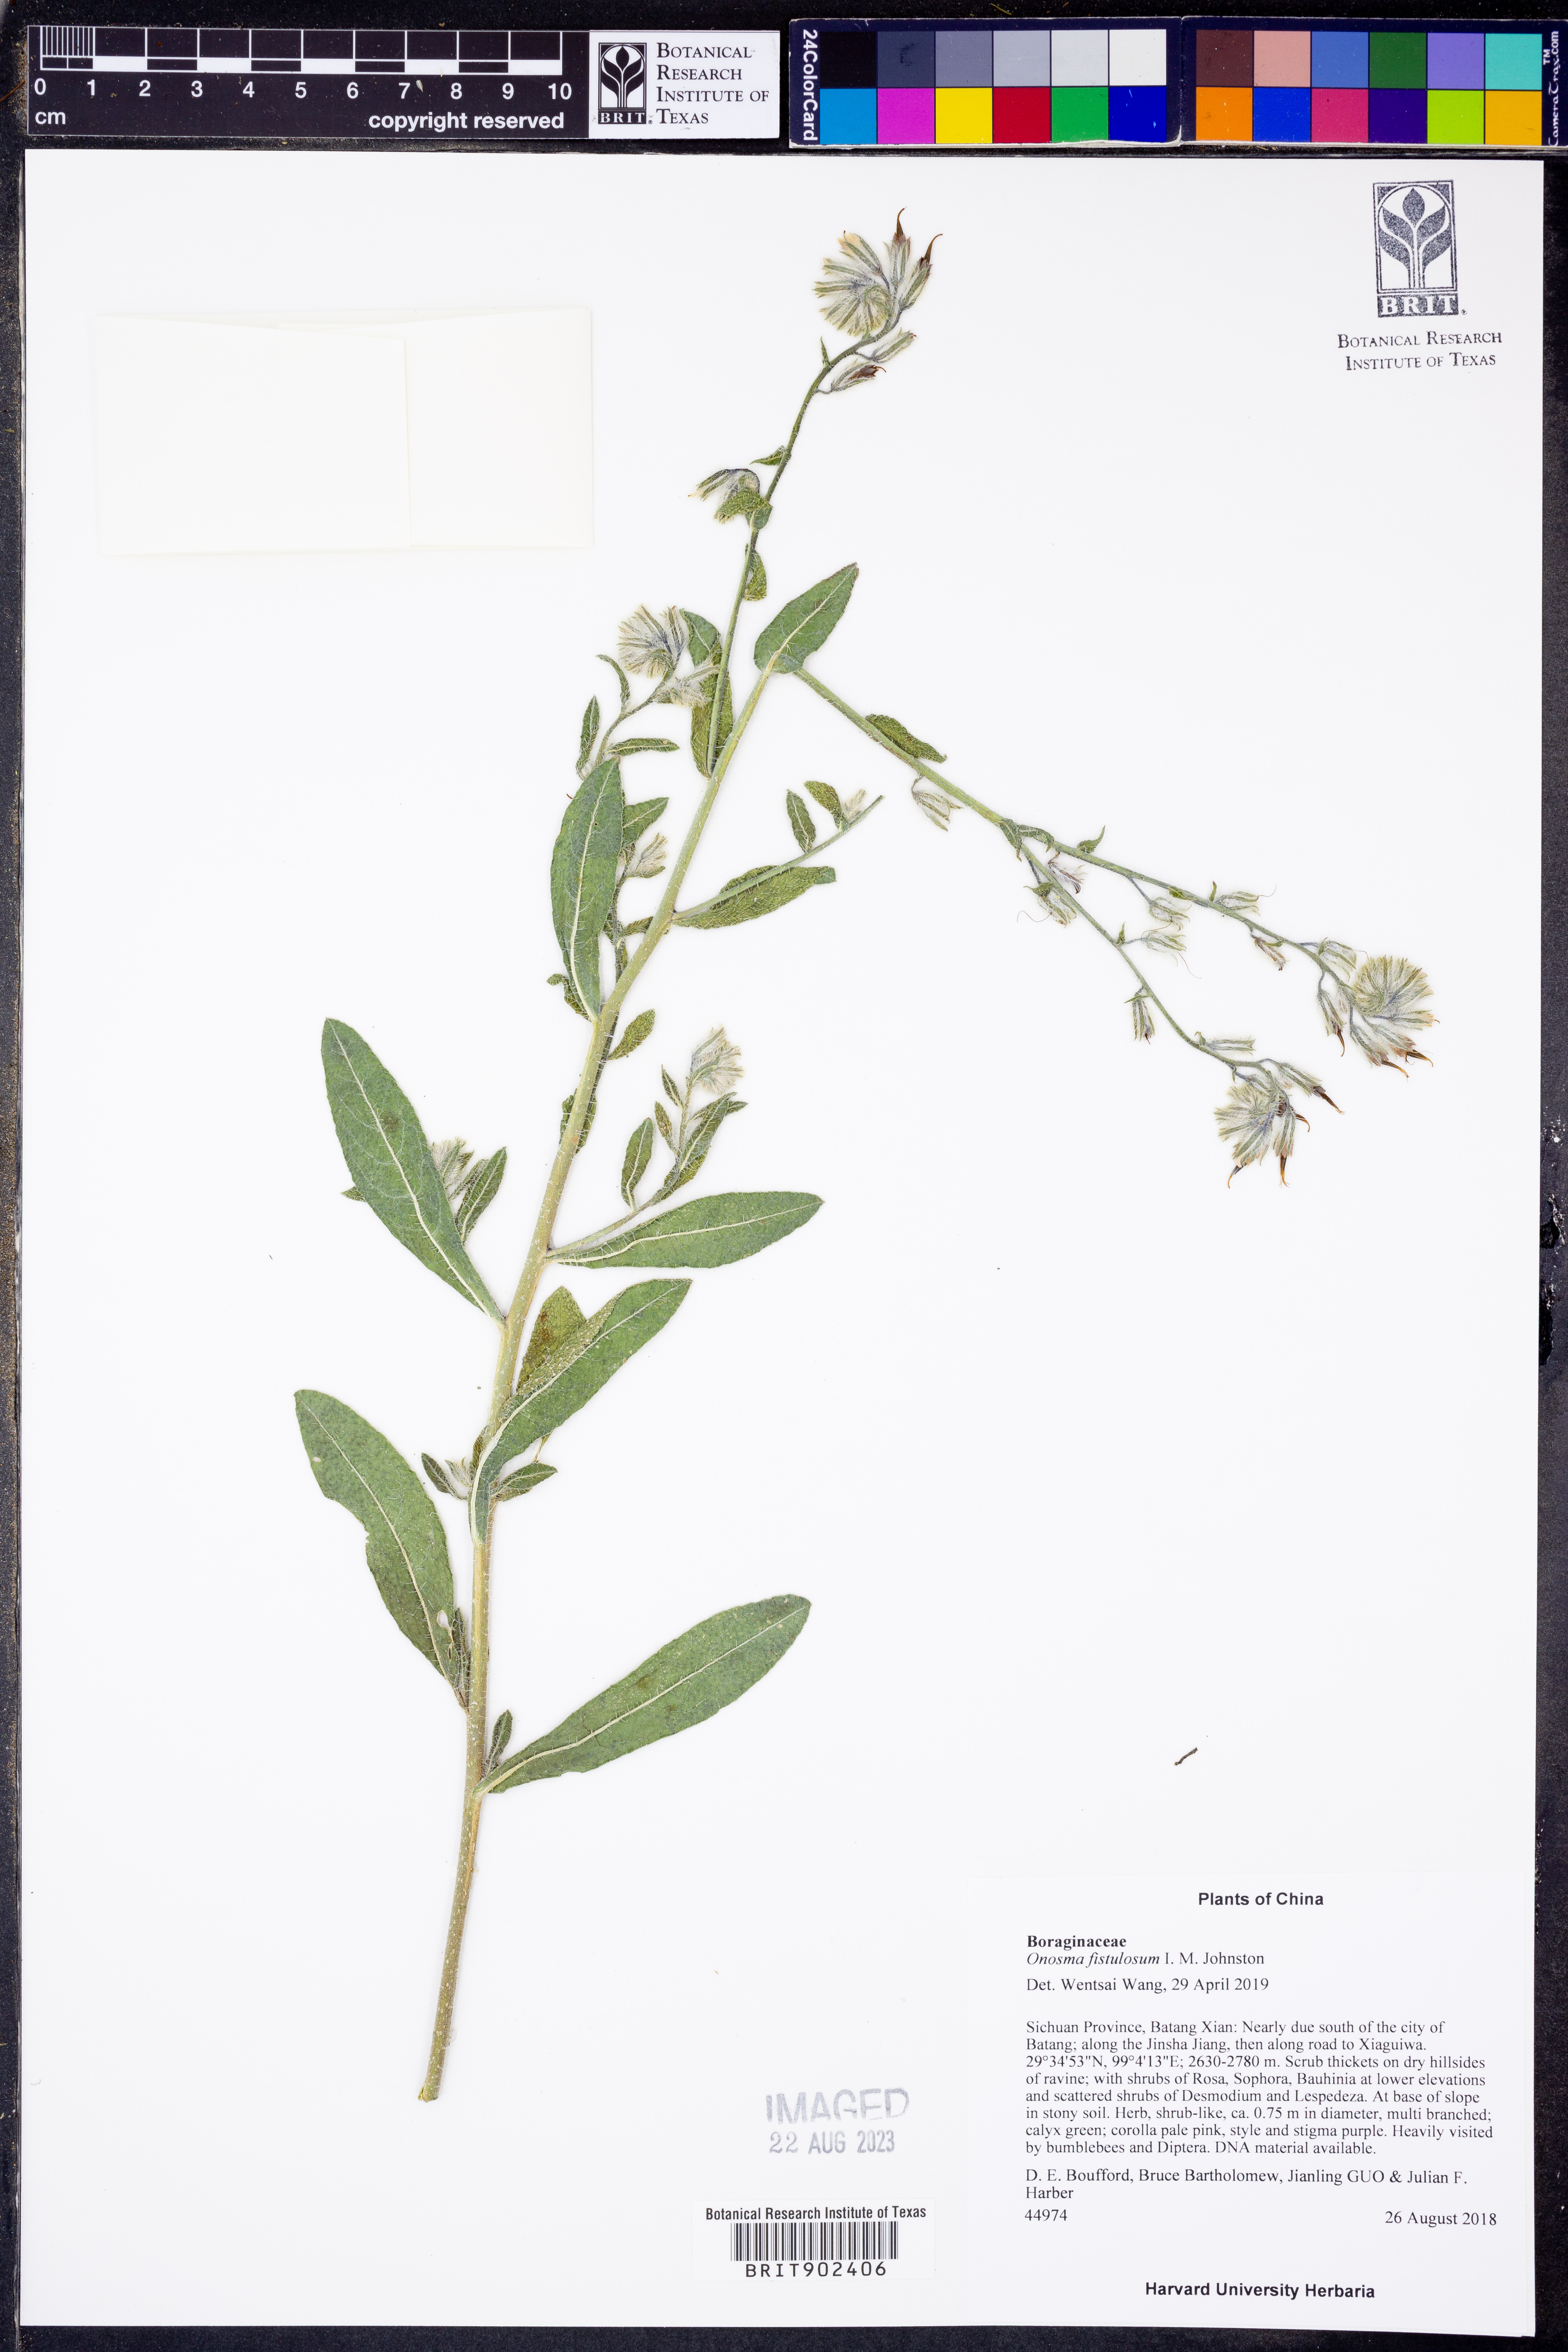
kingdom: Plantae
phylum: Tracheophyta
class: Magnoliopsida
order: Boraginales
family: Boraginaceae
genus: Onosma
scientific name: Onosma
